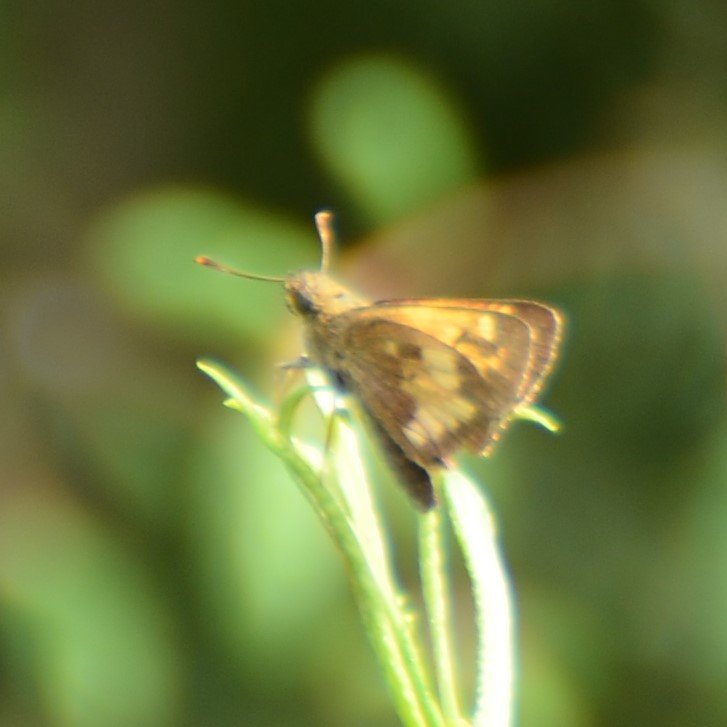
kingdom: Animalia
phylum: Arthropoda
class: Insecta
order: Lepidoptera
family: Hesperiidae
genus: Polites
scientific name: Polites coras
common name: Peck's Skipper
